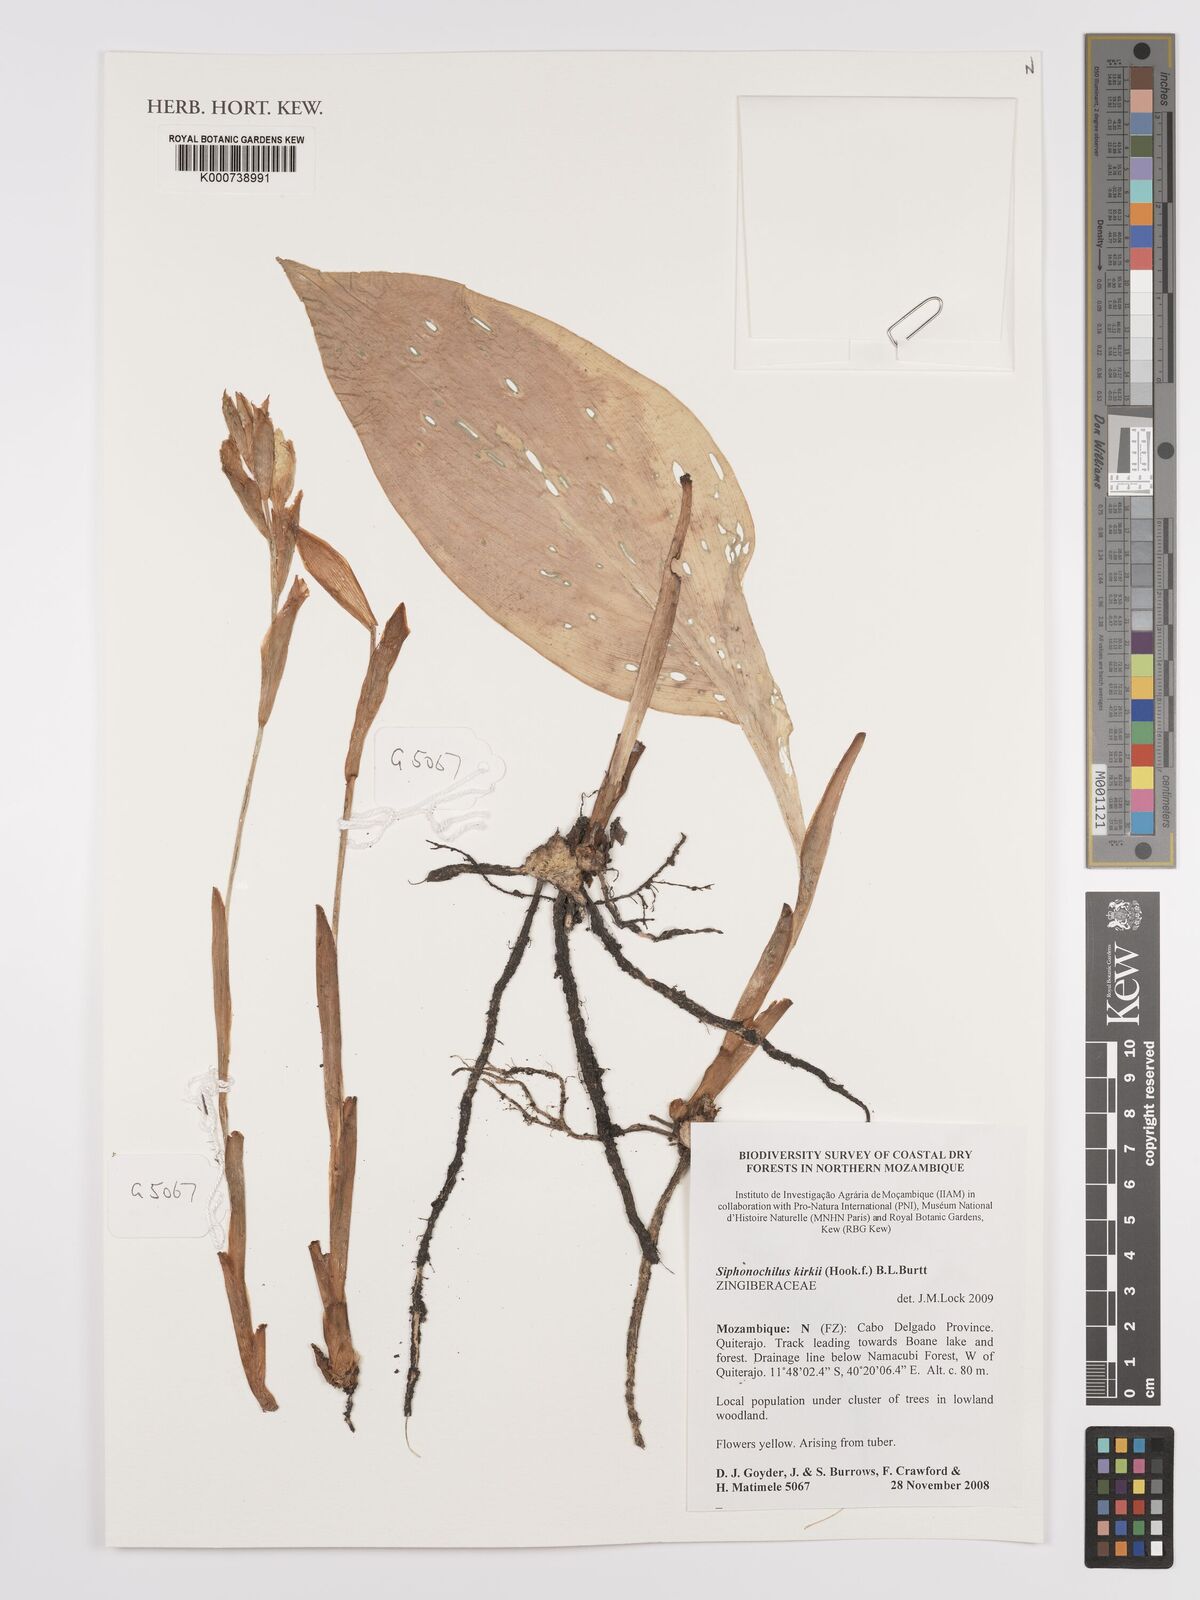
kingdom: Plantae
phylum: Tracheophyta
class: Liliopsida
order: Zingiberales
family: Zingiberaceae
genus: Siphonochilus
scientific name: Siphonochilus kirkii
